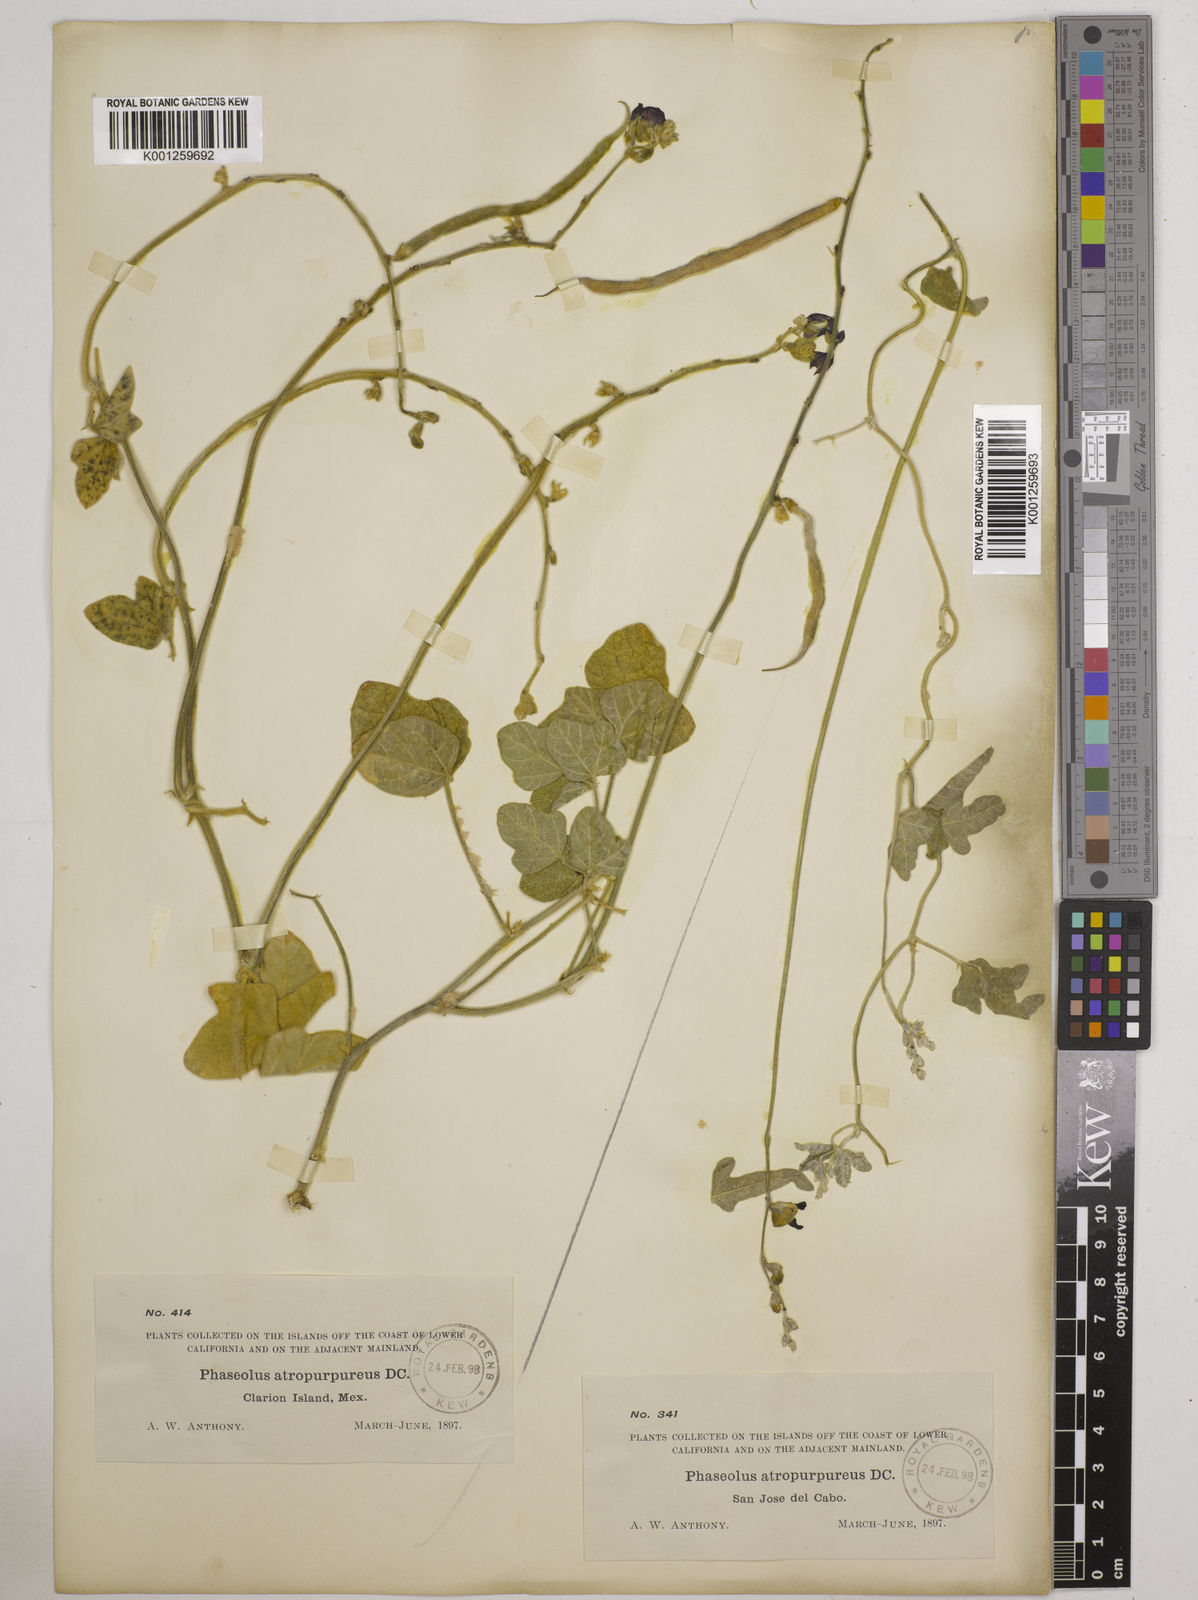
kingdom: Plantae
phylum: Tracheophyta
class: Magnoliopsida
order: Fabales
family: Fabaceae
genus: Macroptilium
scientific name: Macroptilium atropurpureum
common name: Purple bushbean
